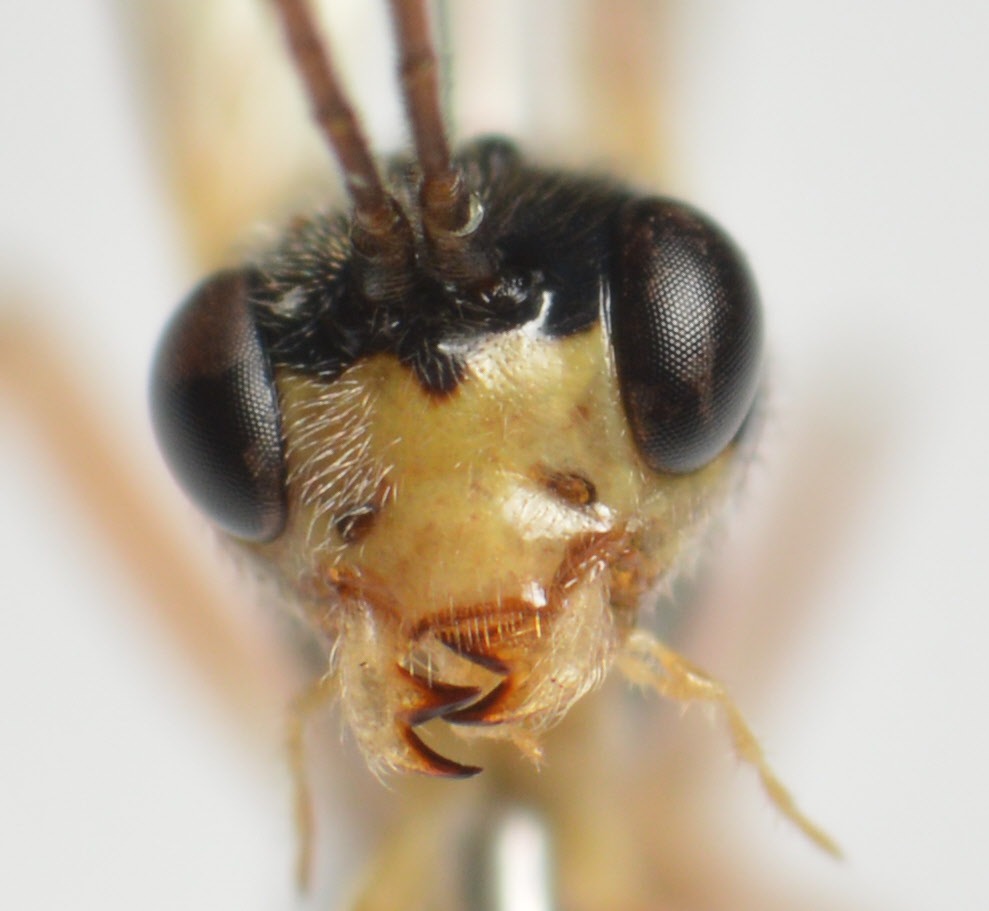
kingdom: Animalia
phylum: Arthropoda
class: Insecta
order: Hymenoptera
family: Ichneumonidae
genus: Acrotomus
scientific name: Acrotomus succinctus
